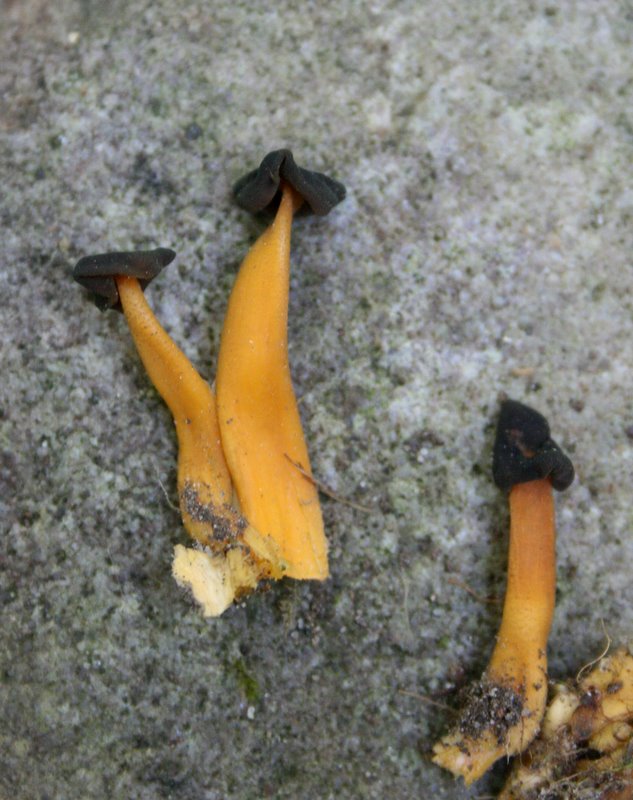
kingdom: Fungi
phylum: Ascomycota
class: Leotiomycetes
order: Leotiales
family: Leotiaceae
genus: Leotia
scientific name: Leotia lubrica
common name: ravsvamp
